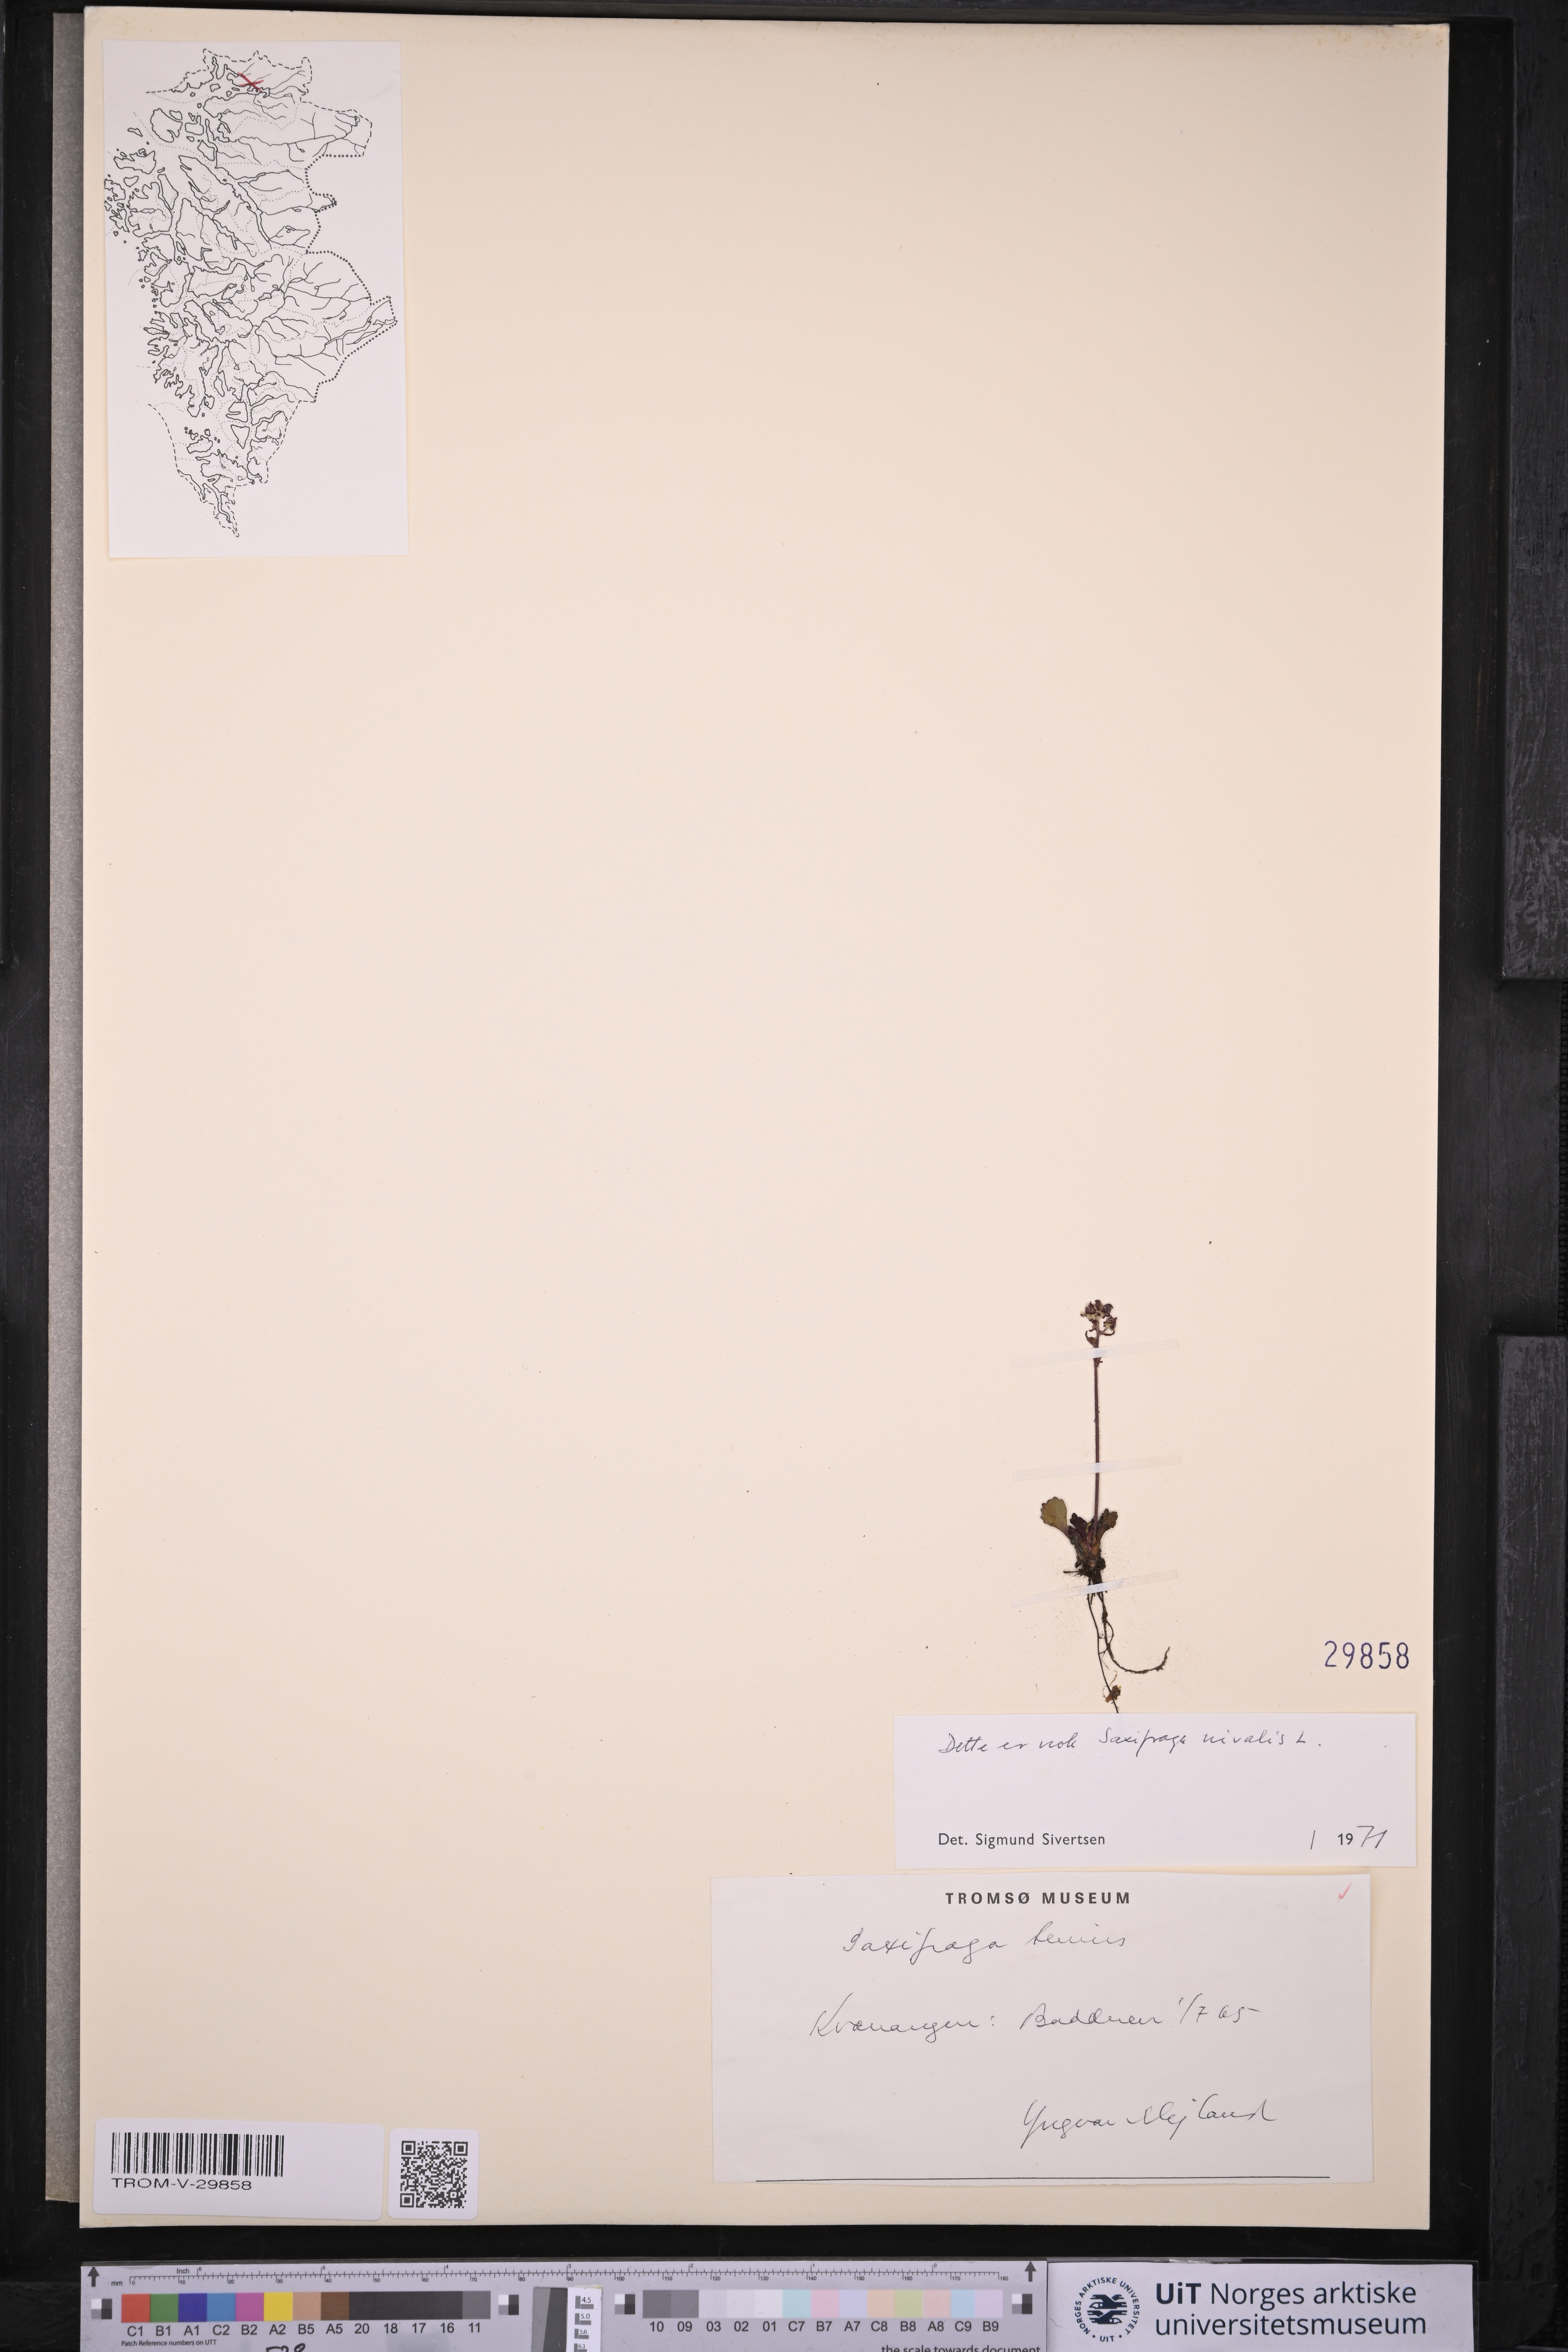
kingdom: Plantae
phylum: Tracheophyta
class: Magnoliopsida
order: Saxifragales
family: Saxifragaceae
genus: Micranthes
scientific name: Micranthes nivalis
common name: Alpine saxifrage
